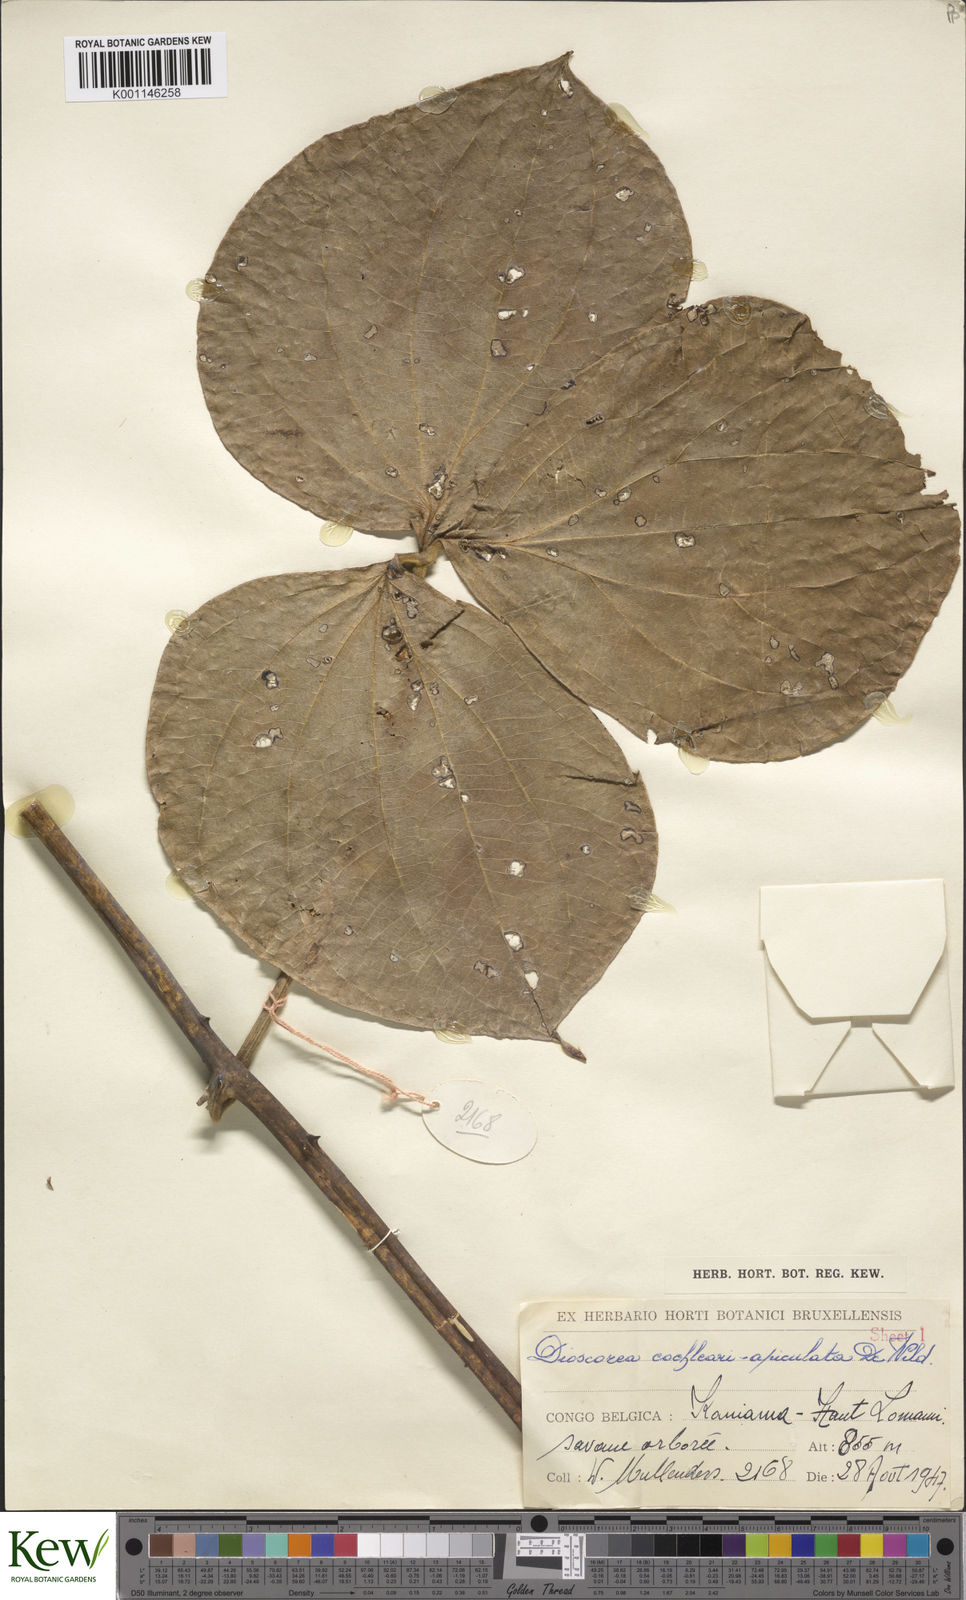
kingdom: Plantae
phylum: Tracheophyta
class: Liliopsida
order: Dioscoreales
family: Dioscoreaceae
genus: Dioscorea
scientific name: Dioscorea cochleariapiculata
